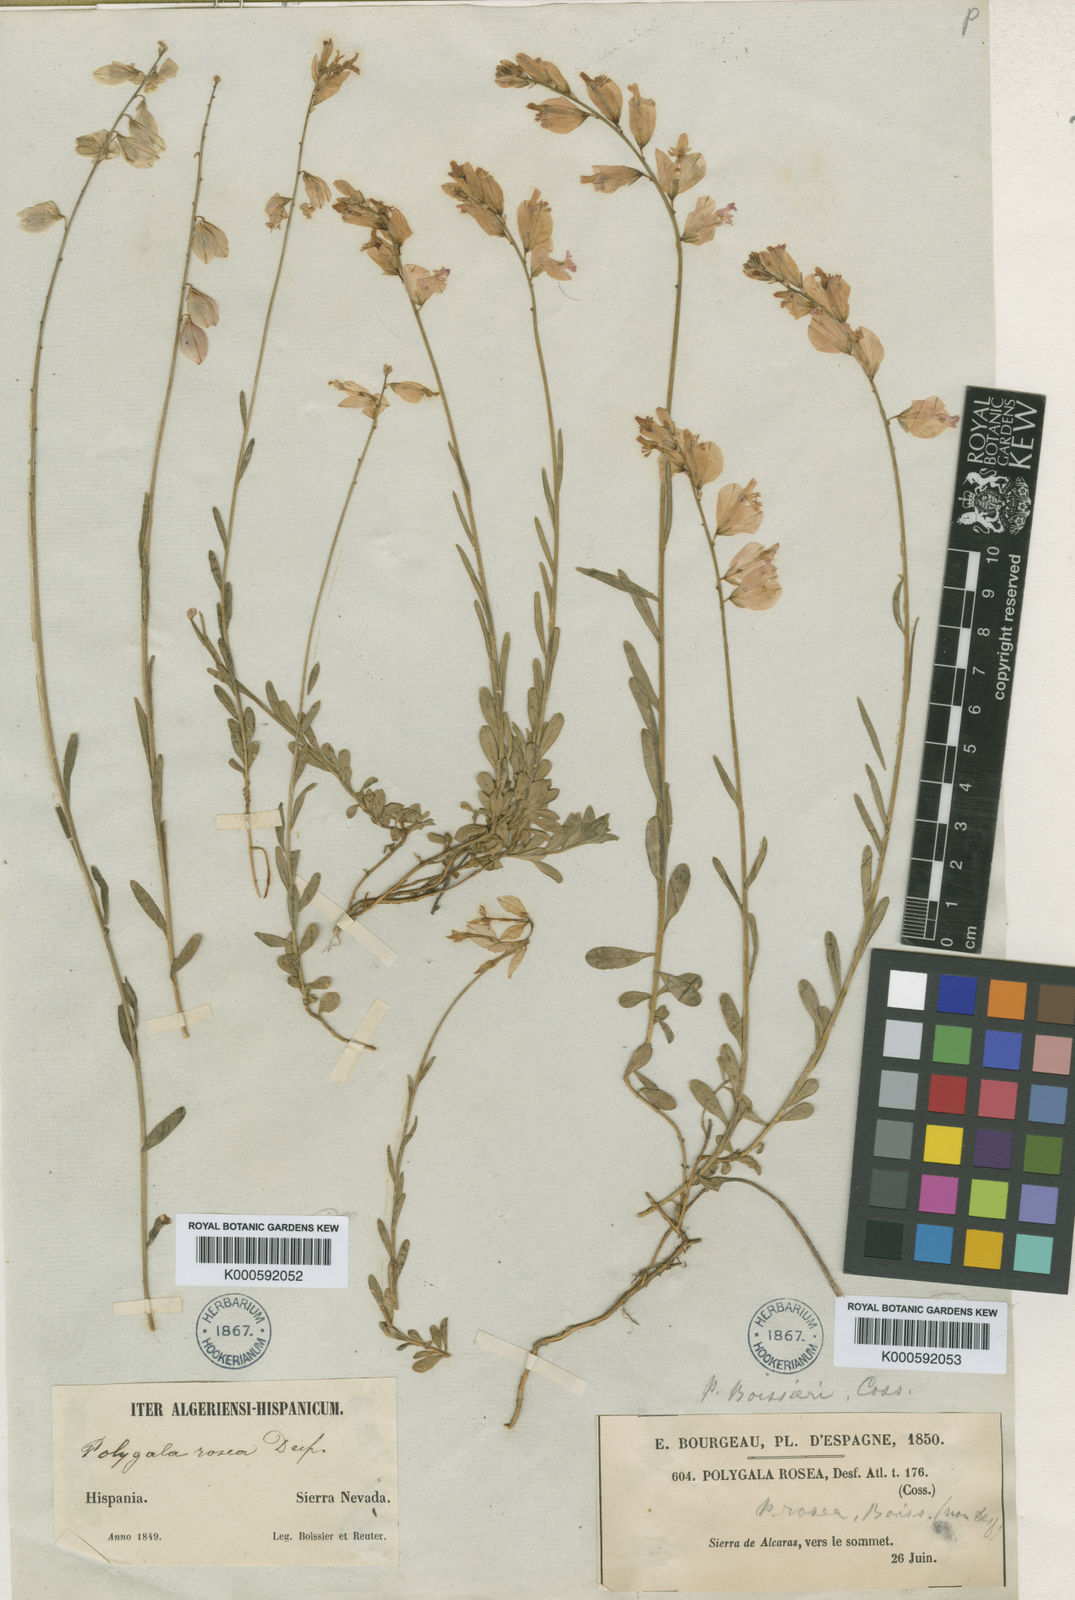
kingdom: Plantae
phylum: Tracheophyta
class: Magnoliopsida
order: Fabales
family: Polygalaceae
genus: Polygala
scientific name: Polygala boissieri
